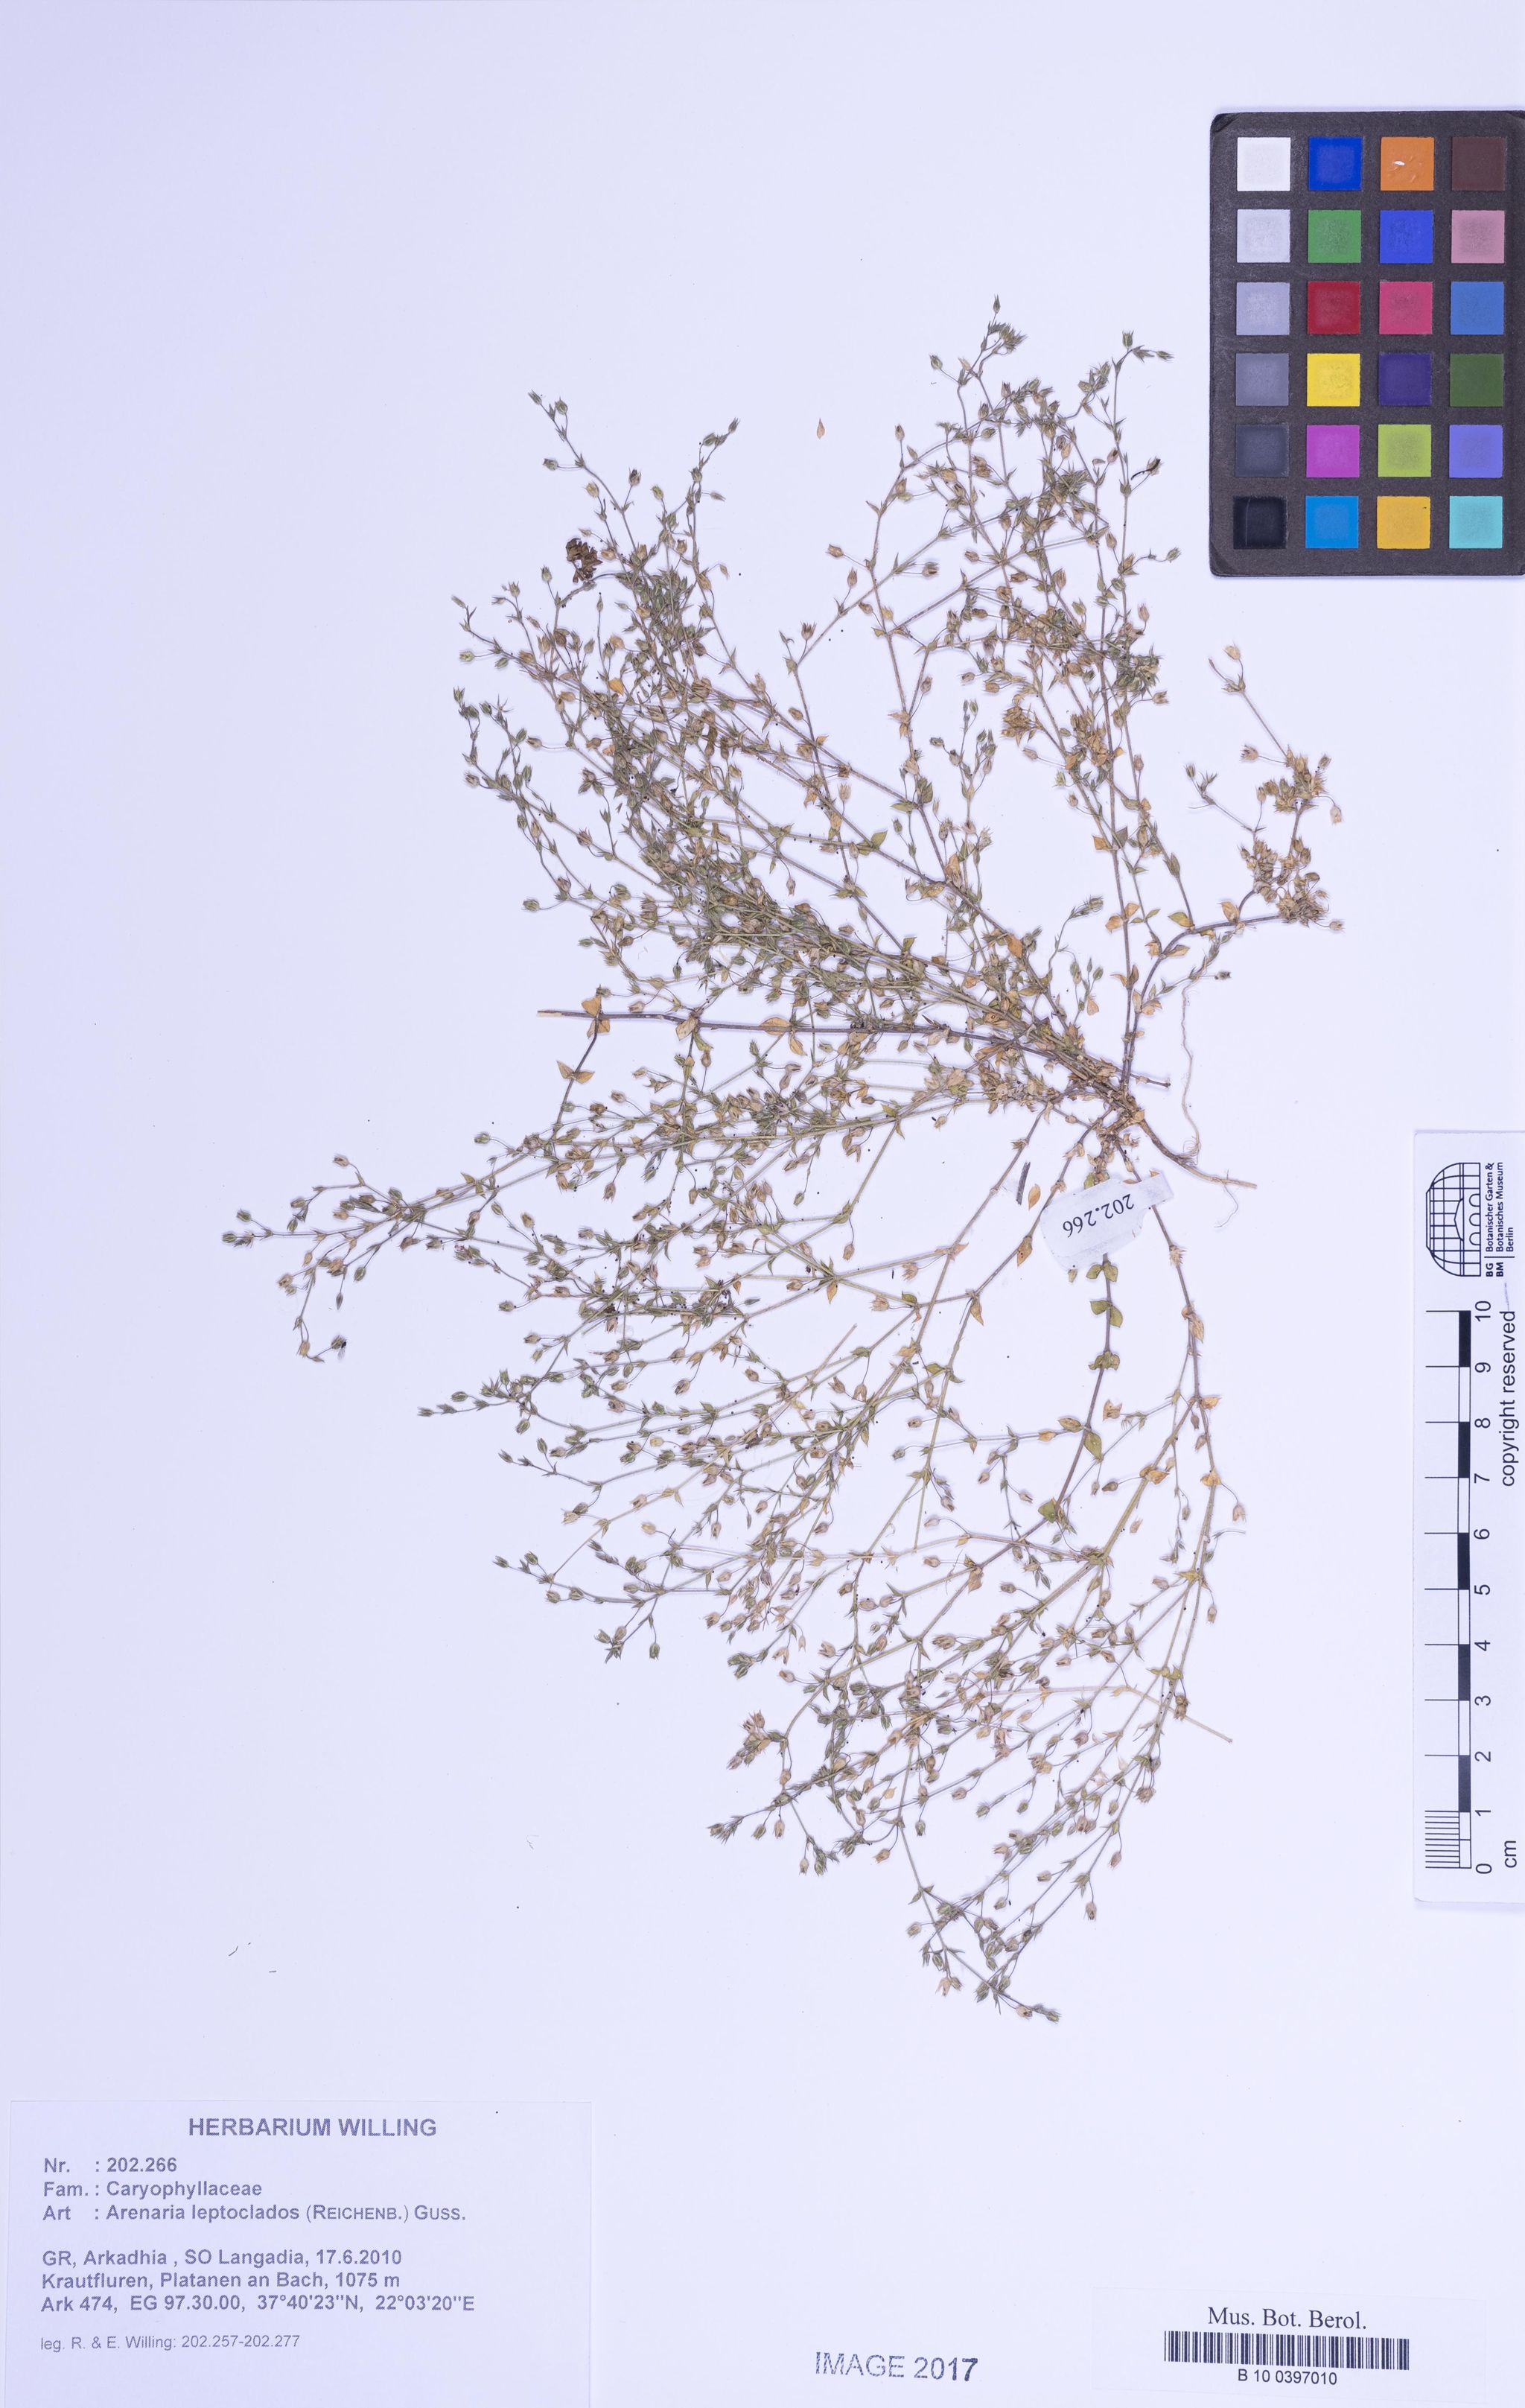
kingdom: Plantae
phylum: Tracheophyta
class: Magnoliopsida
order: Caryophyllales
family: Caryophyllaceae
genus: Arenaria
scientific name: Arenaria leptoclados
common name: Thyme-leaved sandwort
